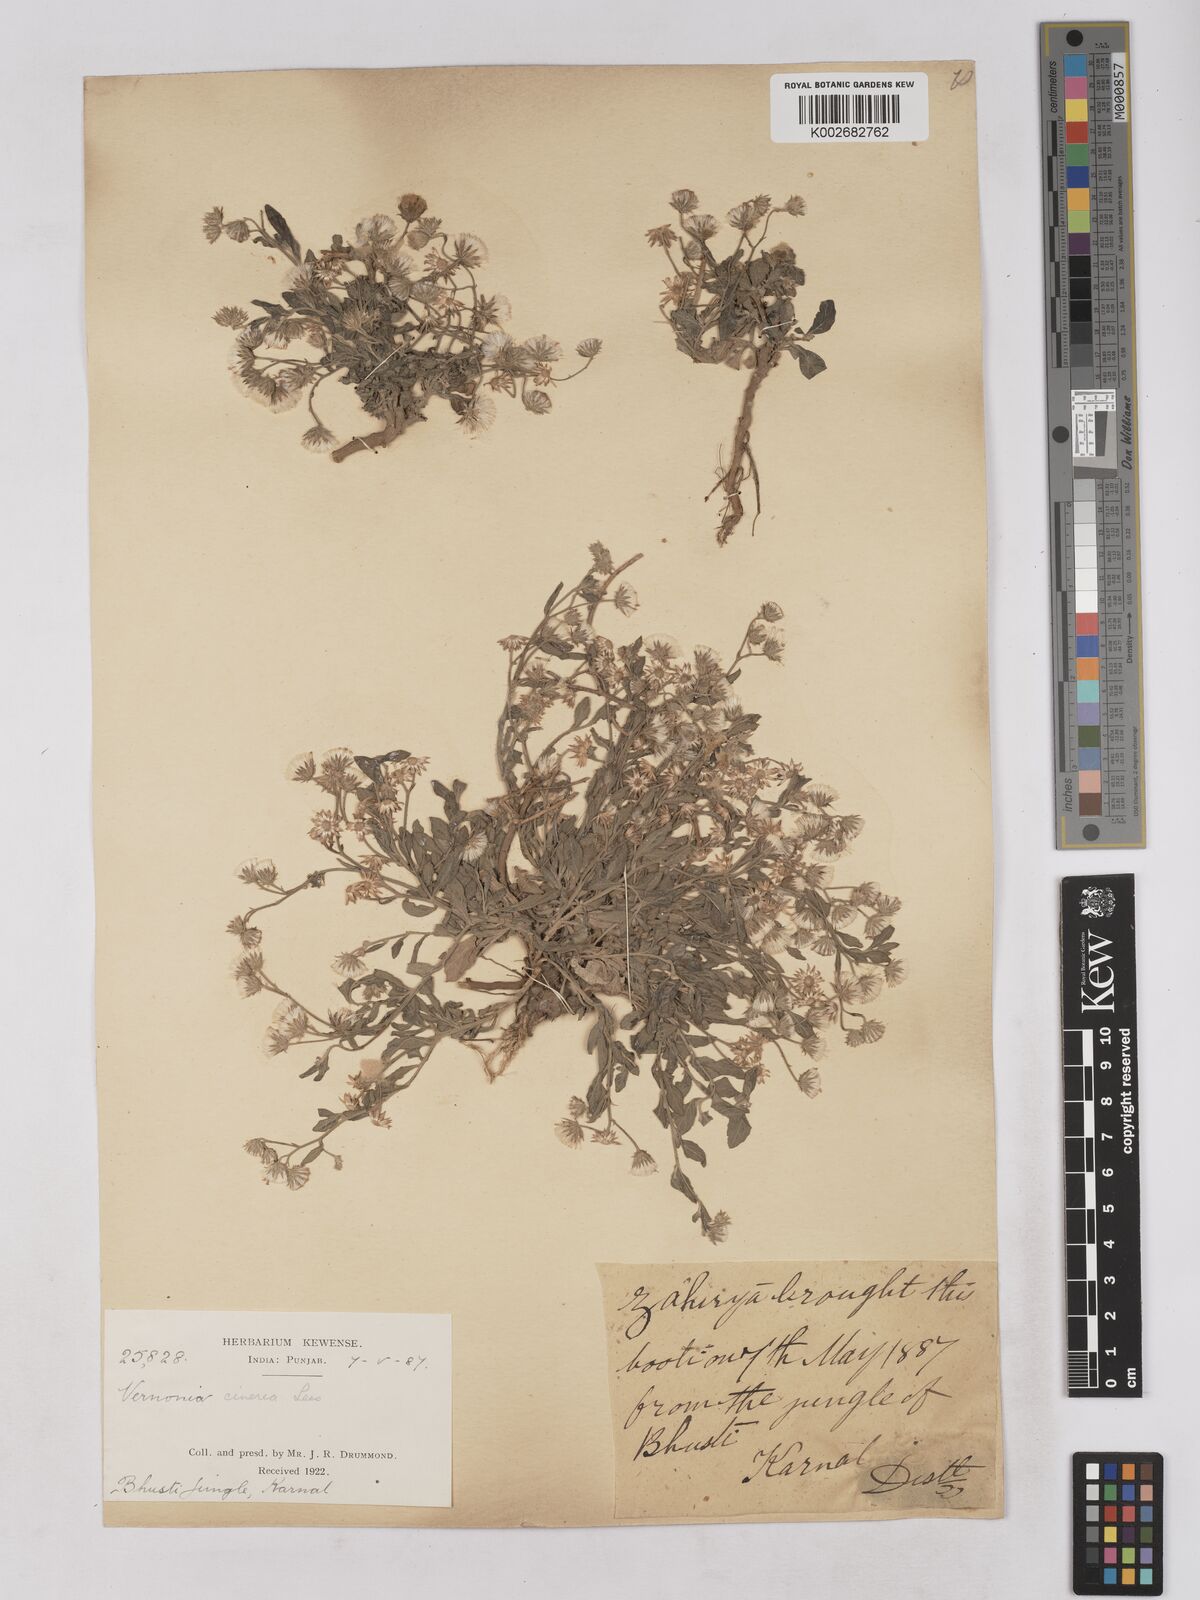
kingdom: Plantae
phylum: Tracheophyta
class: Magnoliopsida
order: Asterales
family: Asteraceae
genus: Cyanthillium
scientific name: Cyanthillium cinereum
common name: Little ironweed
